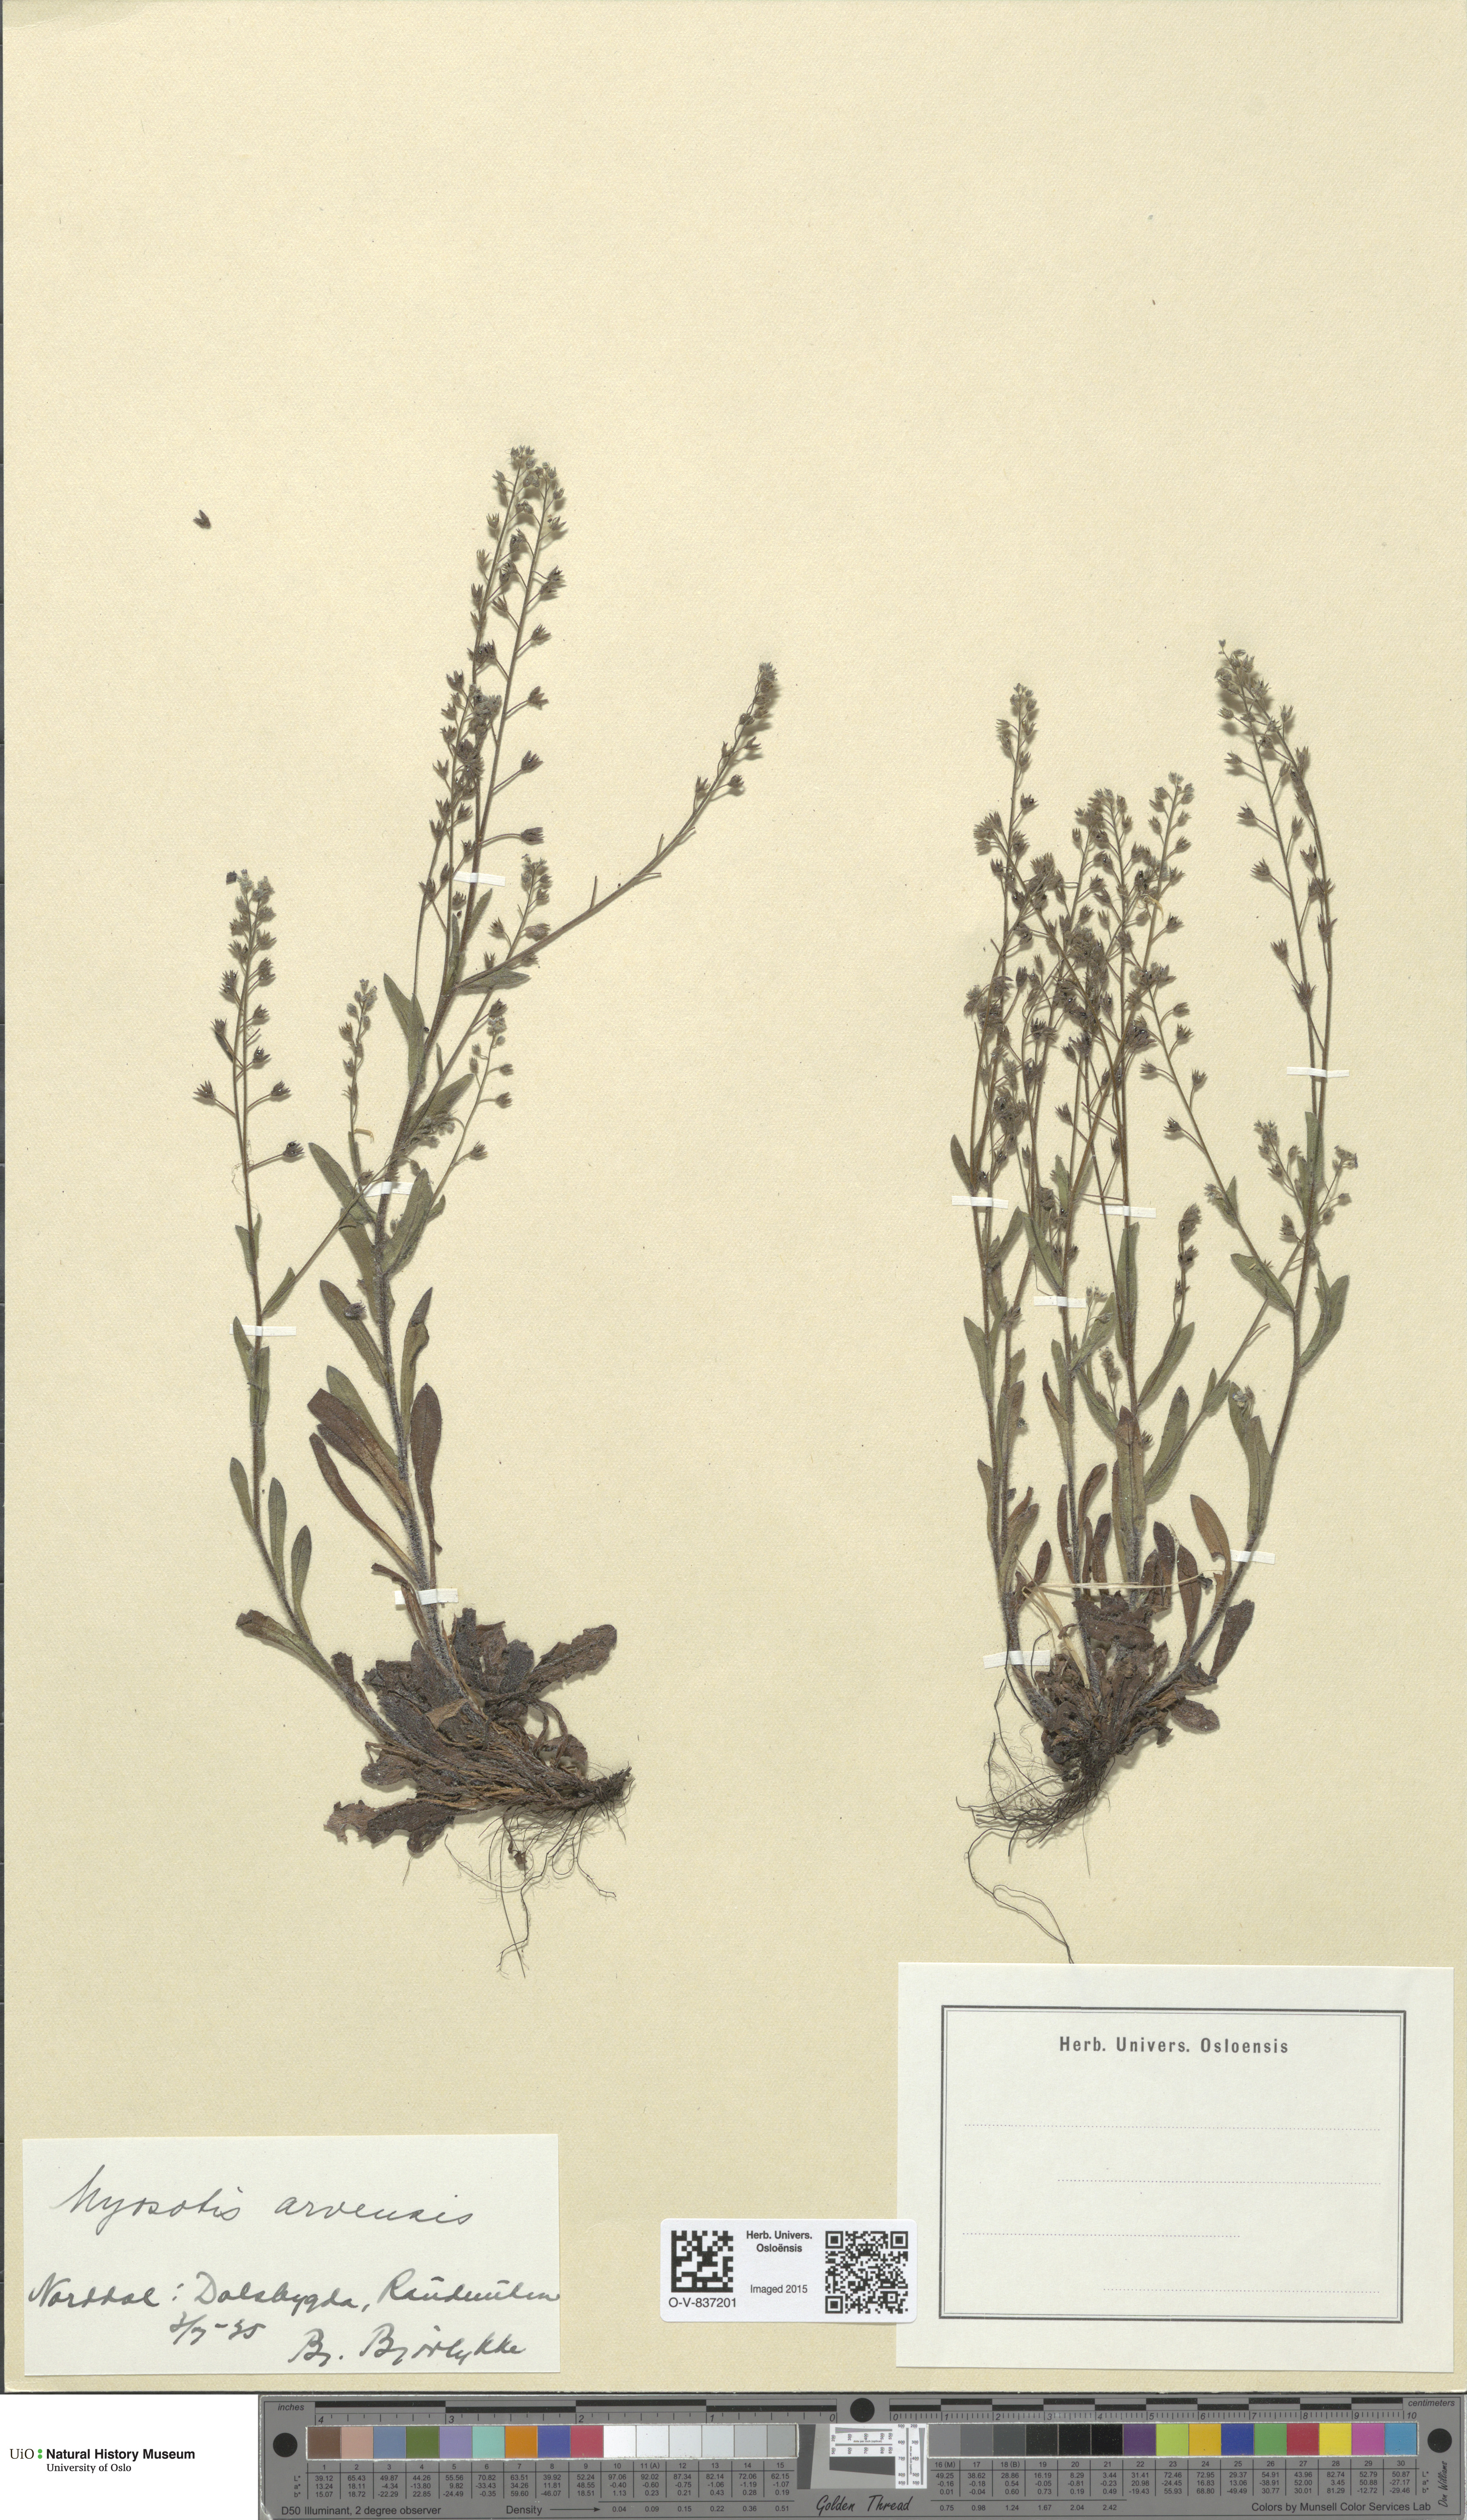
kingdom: Plantae
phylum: Tracheophyta
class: Magnoliopsida
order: Boraginales
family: Boraginaceae
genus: Myosotis
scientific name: Myosotis arvensis
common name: Field forget-me-not
